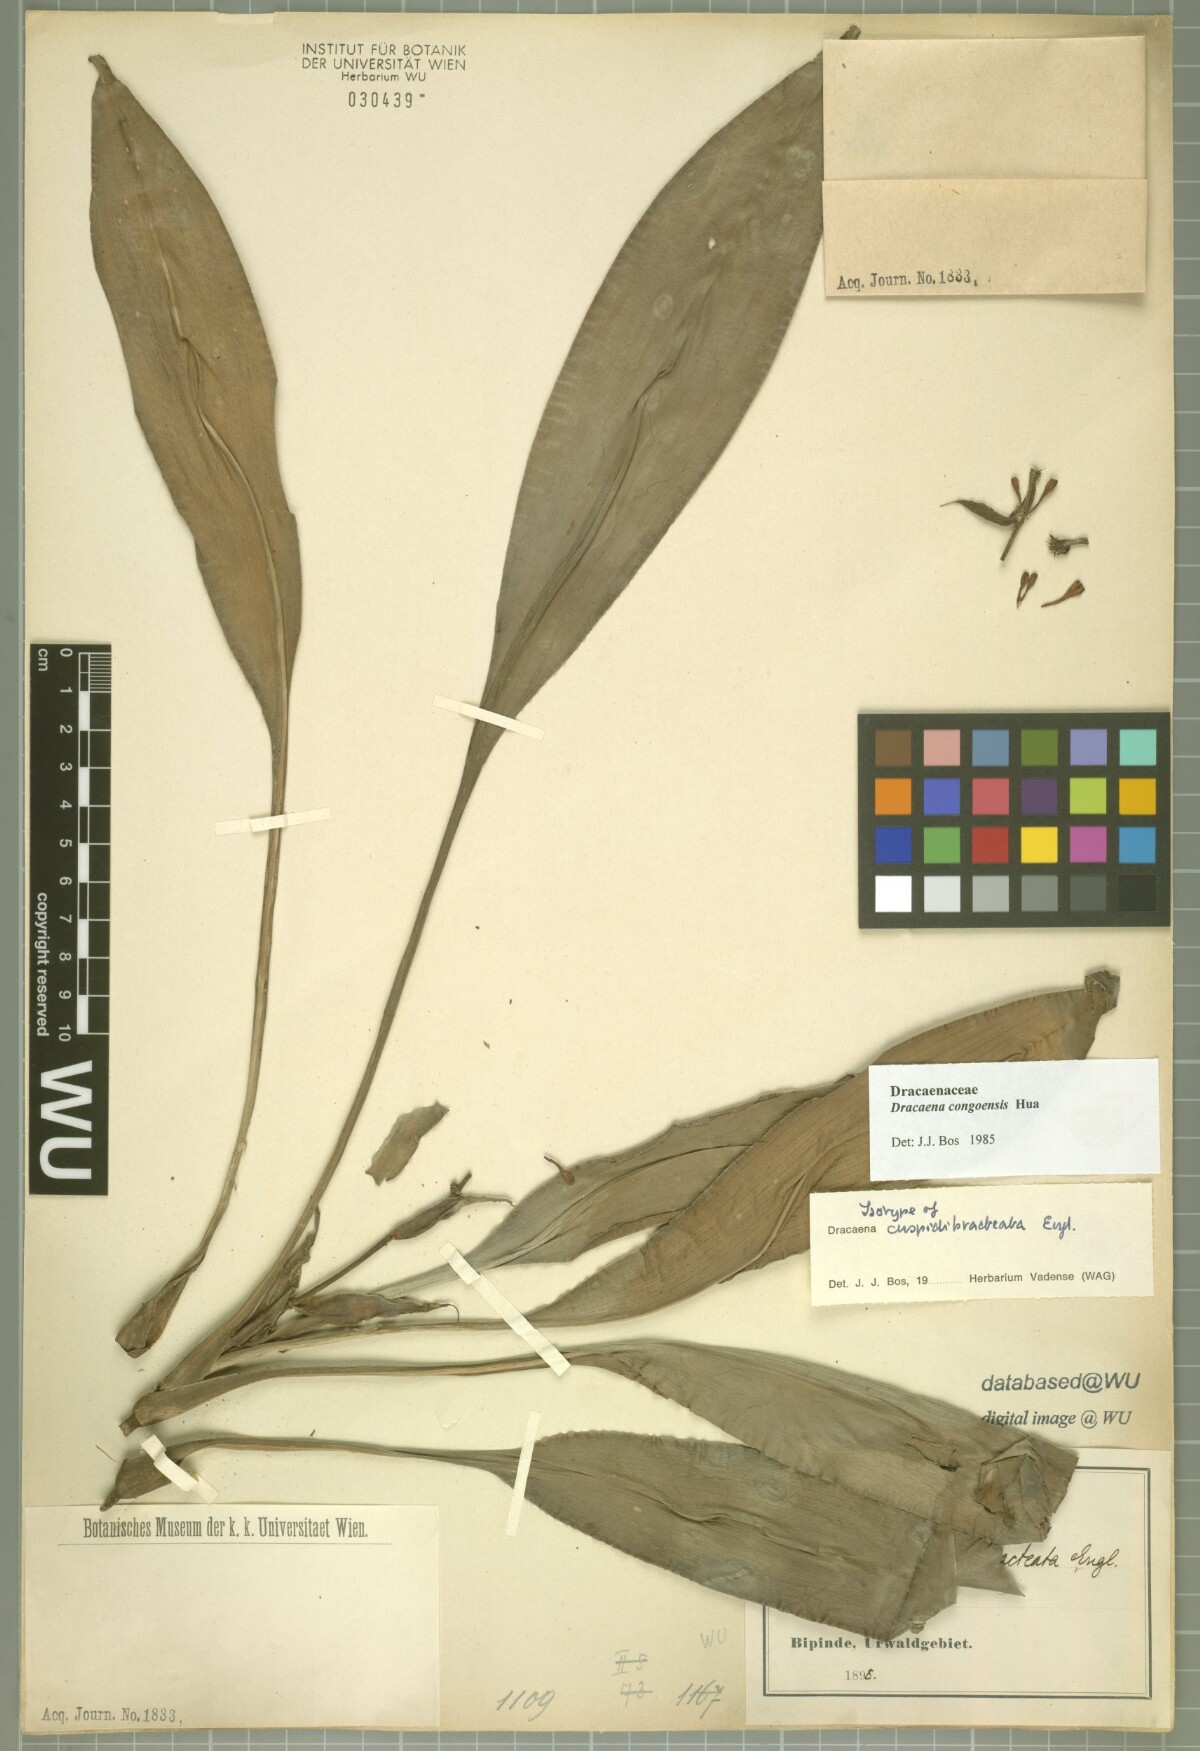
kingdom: Plantae
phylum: Tracheophyta
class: Liliopsida
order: Asparagales
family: Asparagaceae
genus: Dracaena
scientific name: Dracaena congoensis
